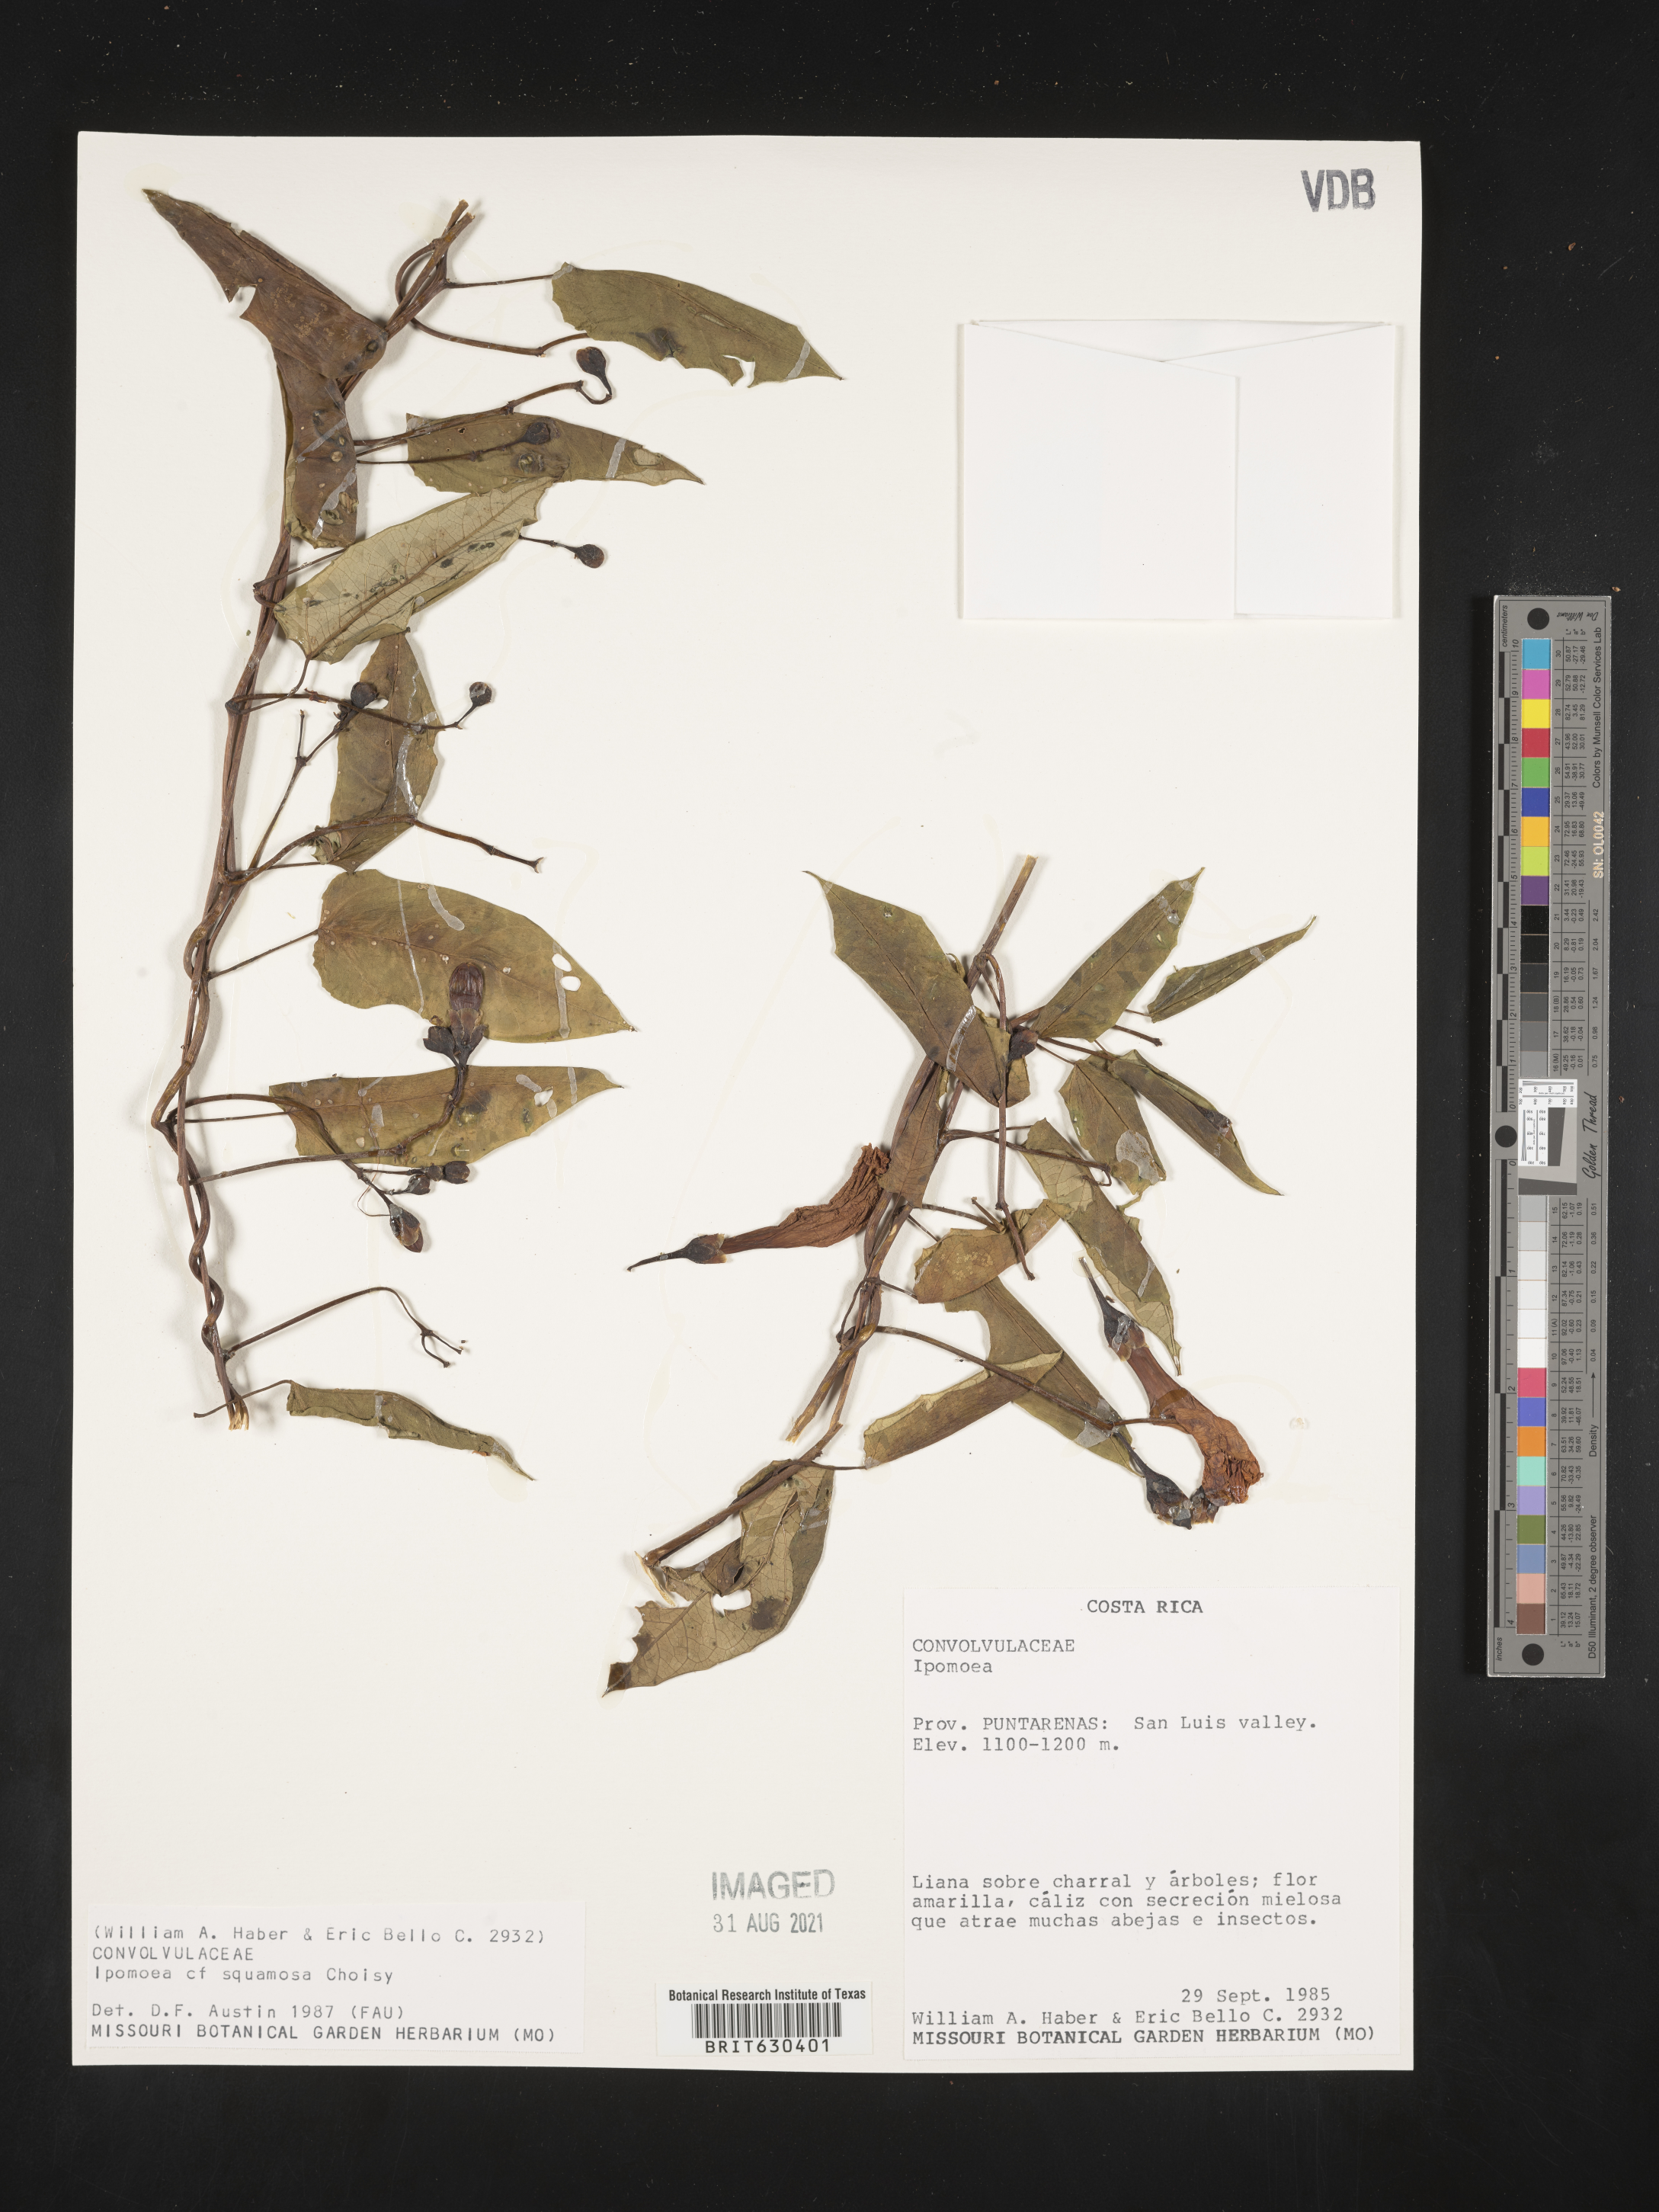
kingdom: Plantae
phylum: Tracheophyta
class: Magnoliopsida
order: Solanales
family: Convolvulaceae
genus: Ipomoea
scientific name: Ipomoea squamosa
